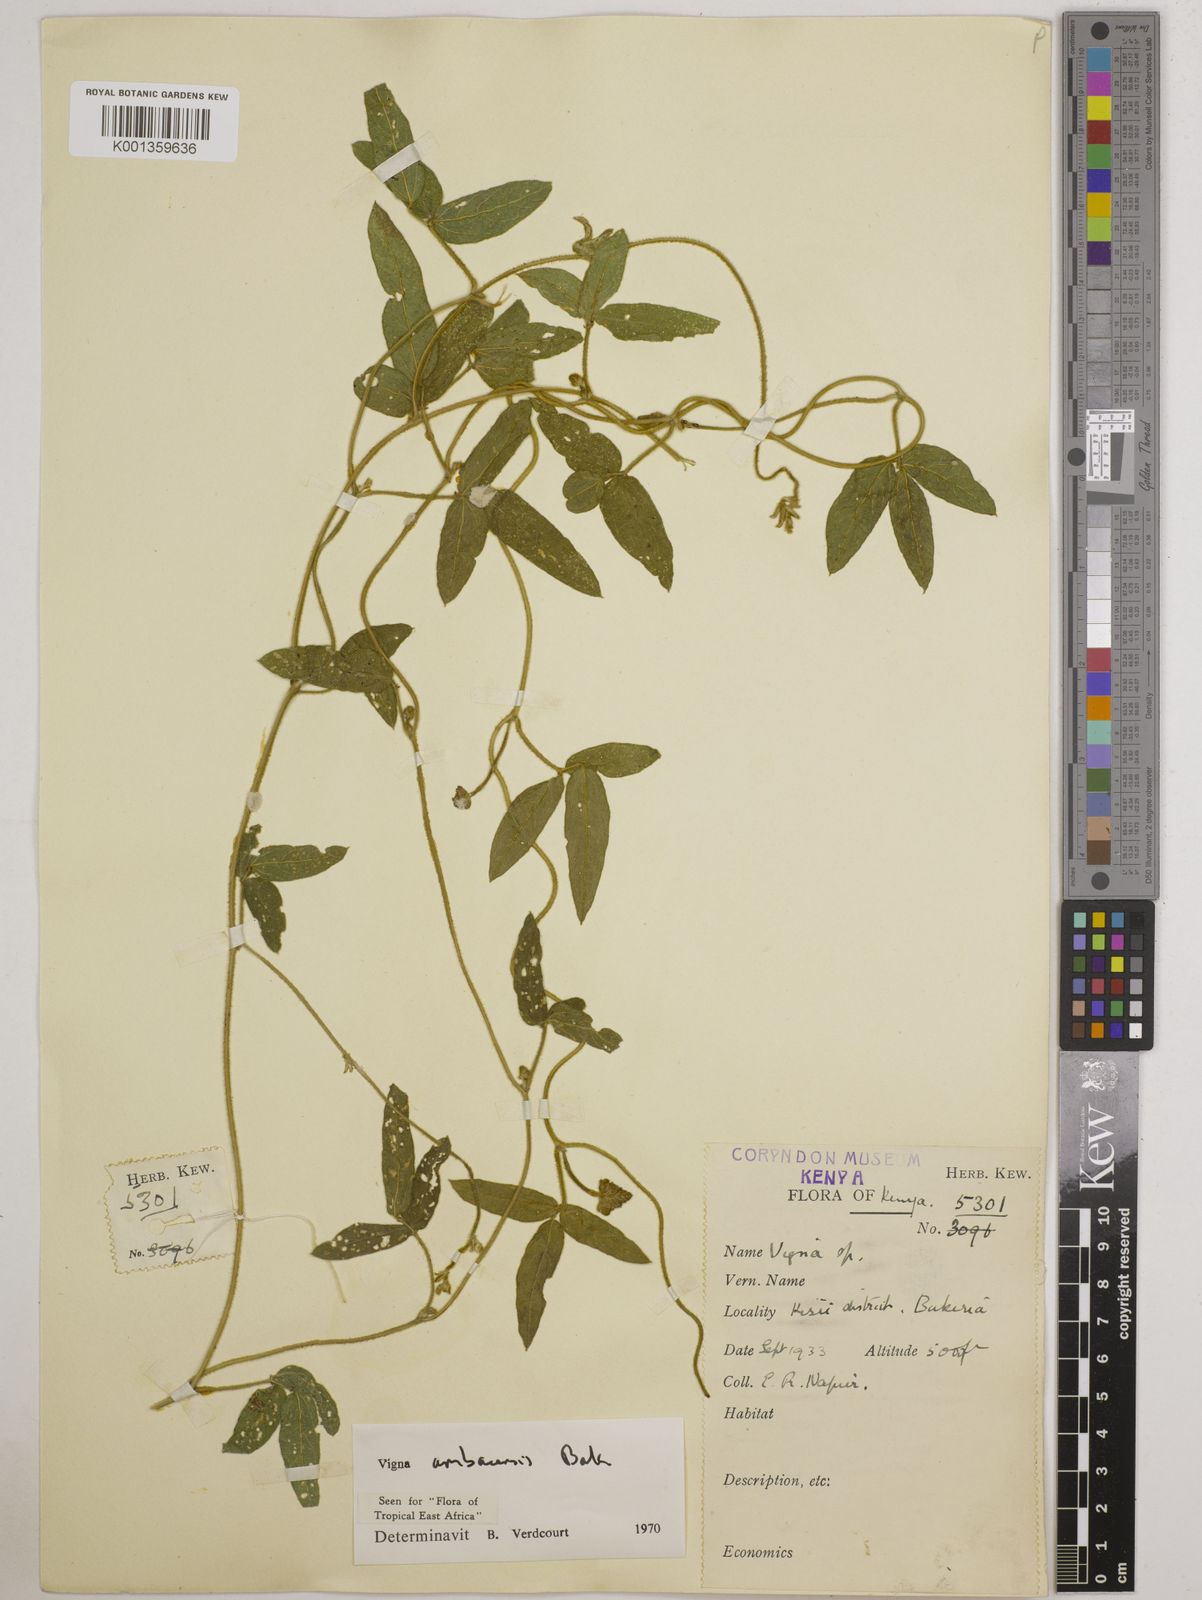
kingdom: Plantae
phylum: Tracheophyta
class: Magnoliopsida
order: Fabales
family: Fabaceae
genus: Vigna
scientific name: Vigna ambacensis
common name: Tsarkiyan zomo
